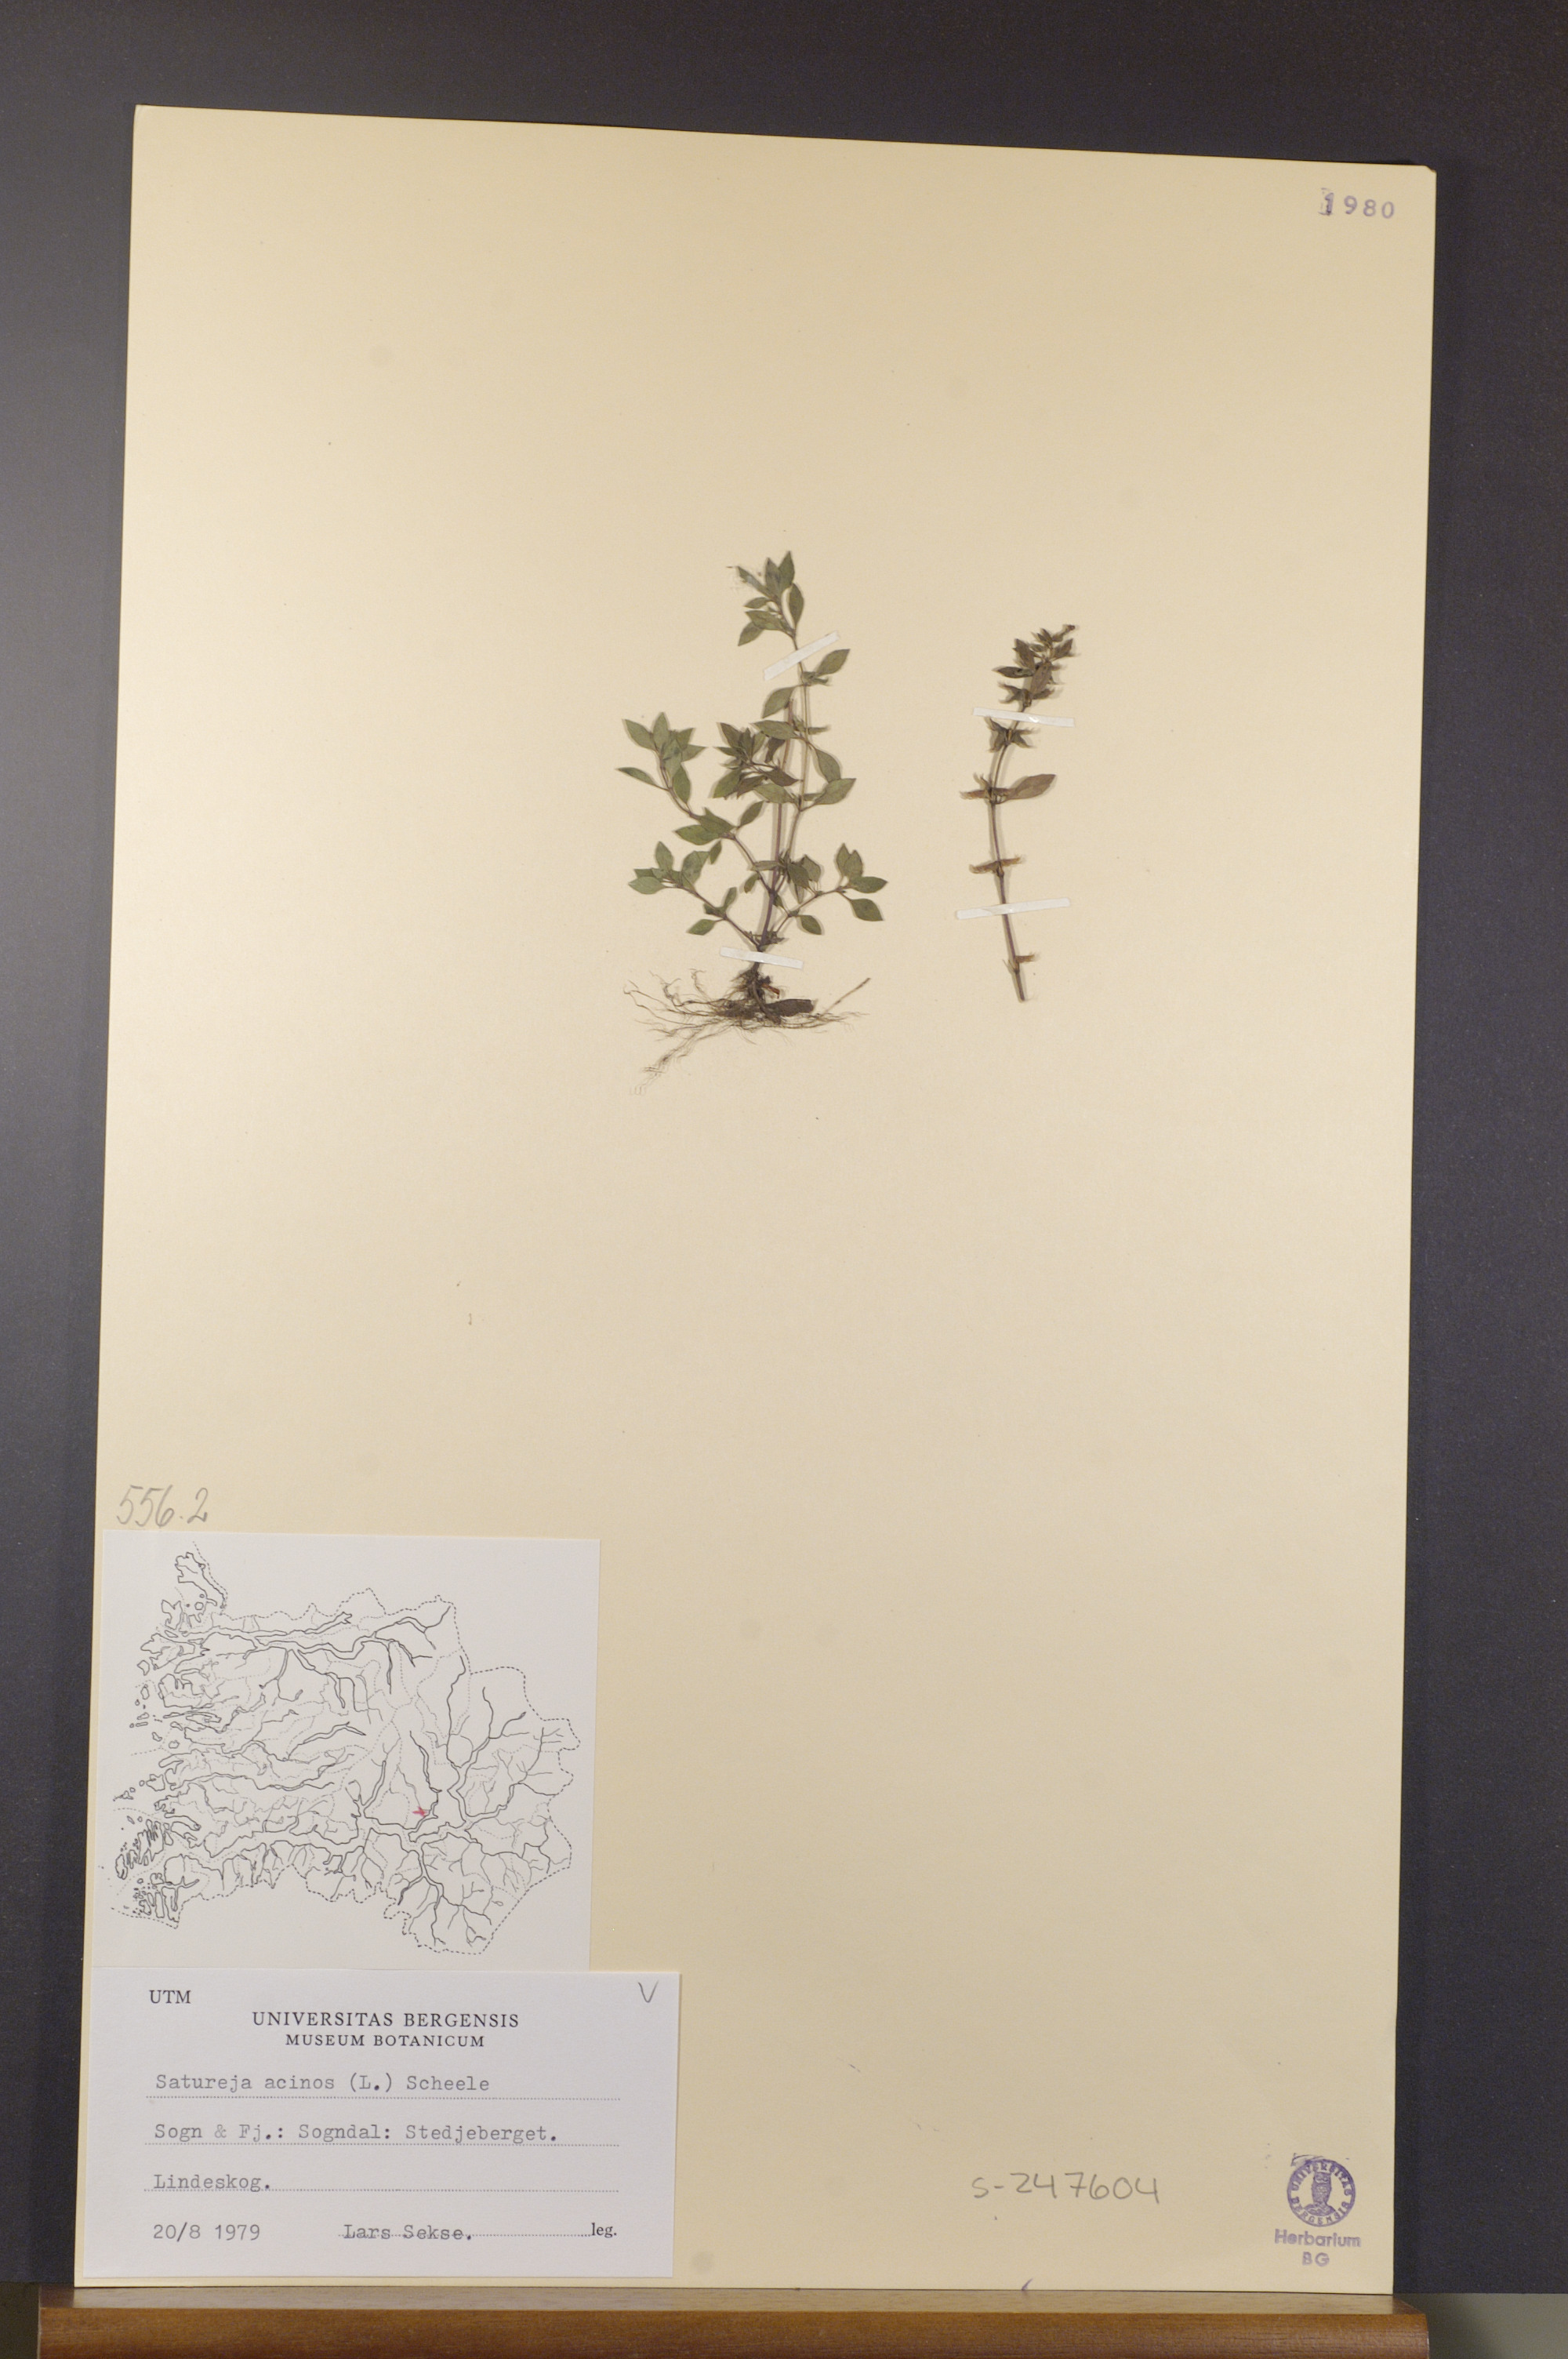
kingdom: Plantae
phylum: Tracheophyta
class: Magnoliopsida
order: Lamiales
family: Lamiaceae
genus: Clinopodium
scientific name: Clinopodium acinos
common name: Basil thyme
